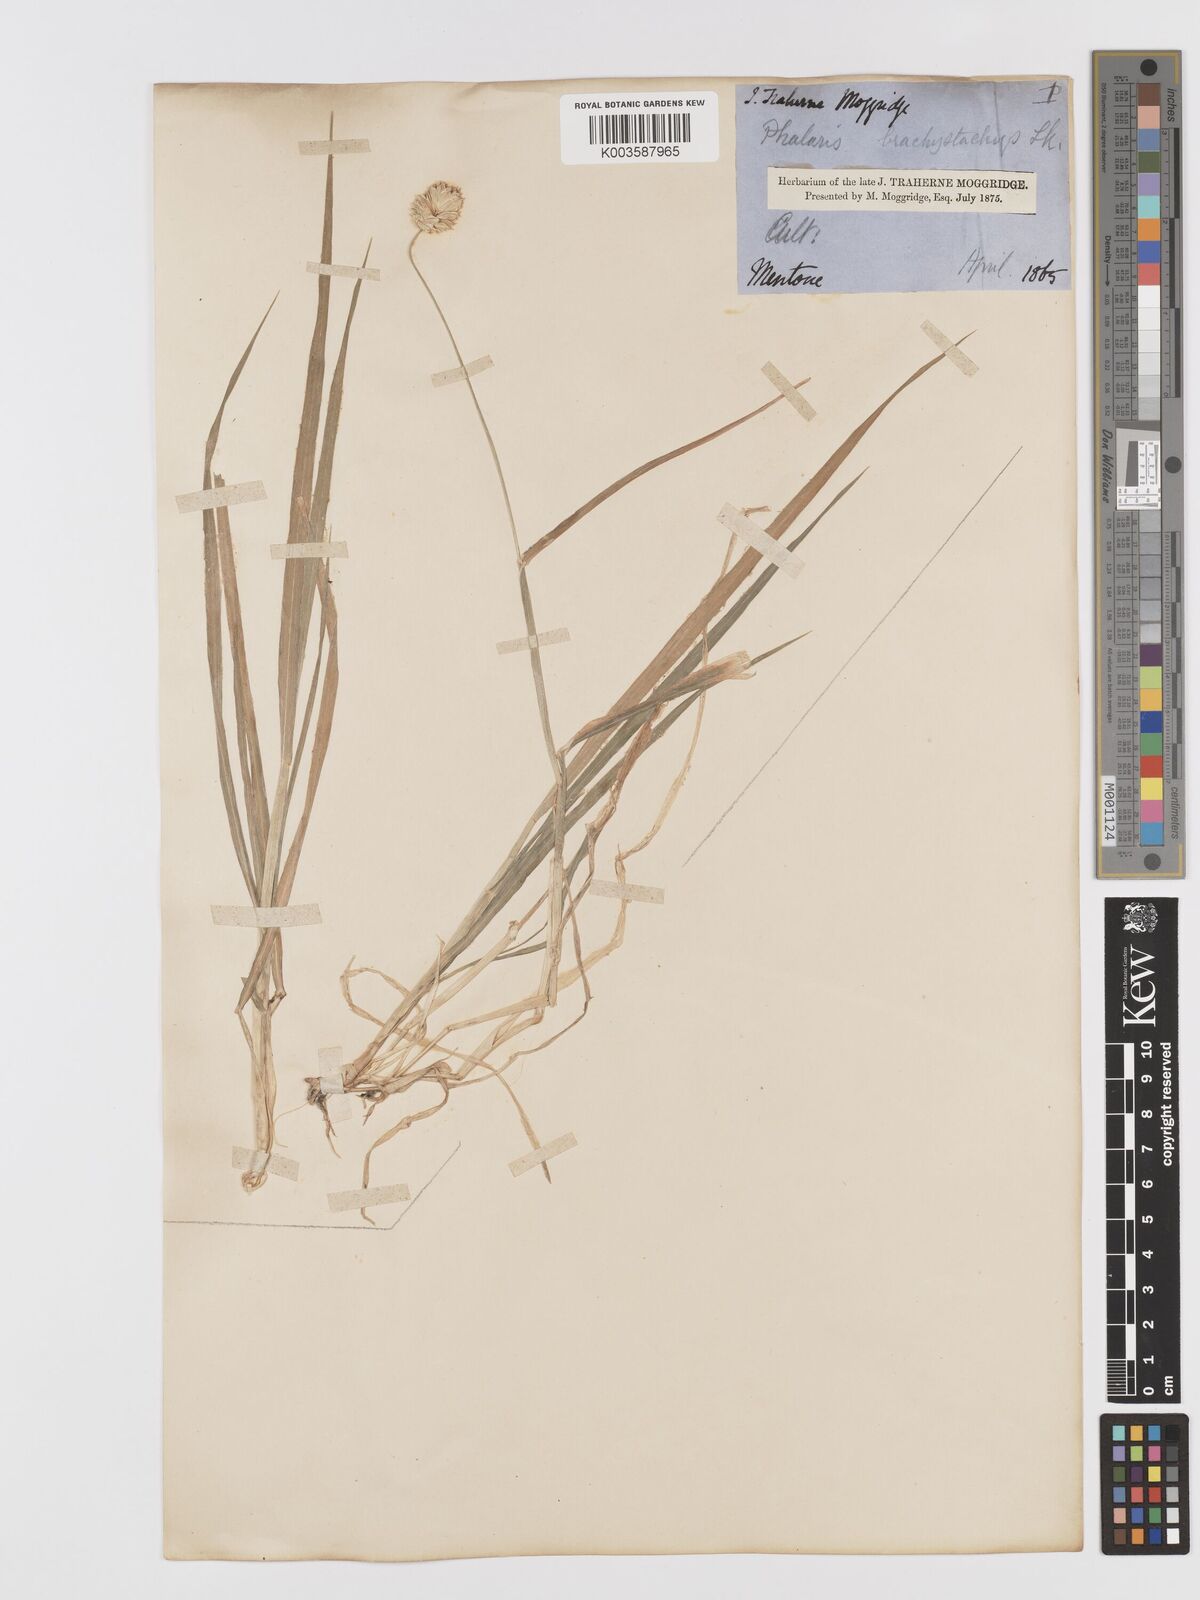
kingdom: Plantae
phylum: Tracheophyta
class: Liliopsida
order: Poales
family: Poaceae
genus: Phalaris
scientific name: Phalaris brachystachys
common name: Confused canary-grass
